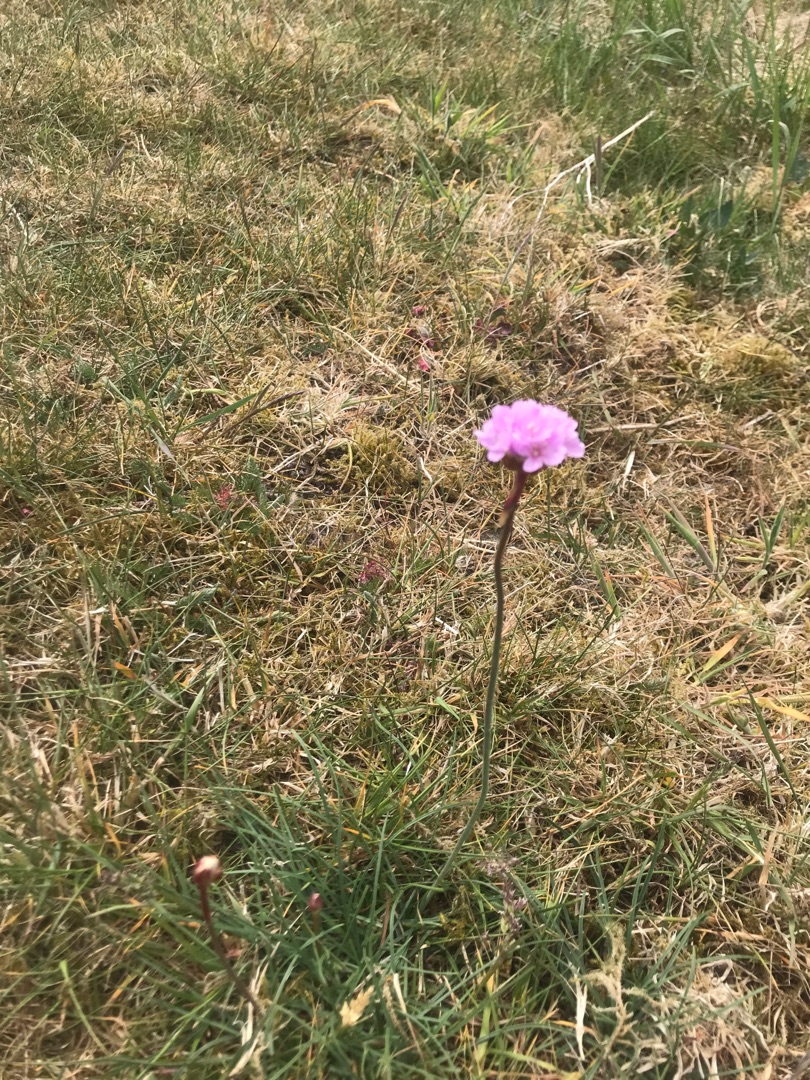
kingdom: Plantae
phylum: Tracheophyta
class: Magnoliopsida
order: Caryophyllales
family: Plumbaginaceae
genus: Armeria
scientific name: Armeria maritima
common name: Engelskgræs
